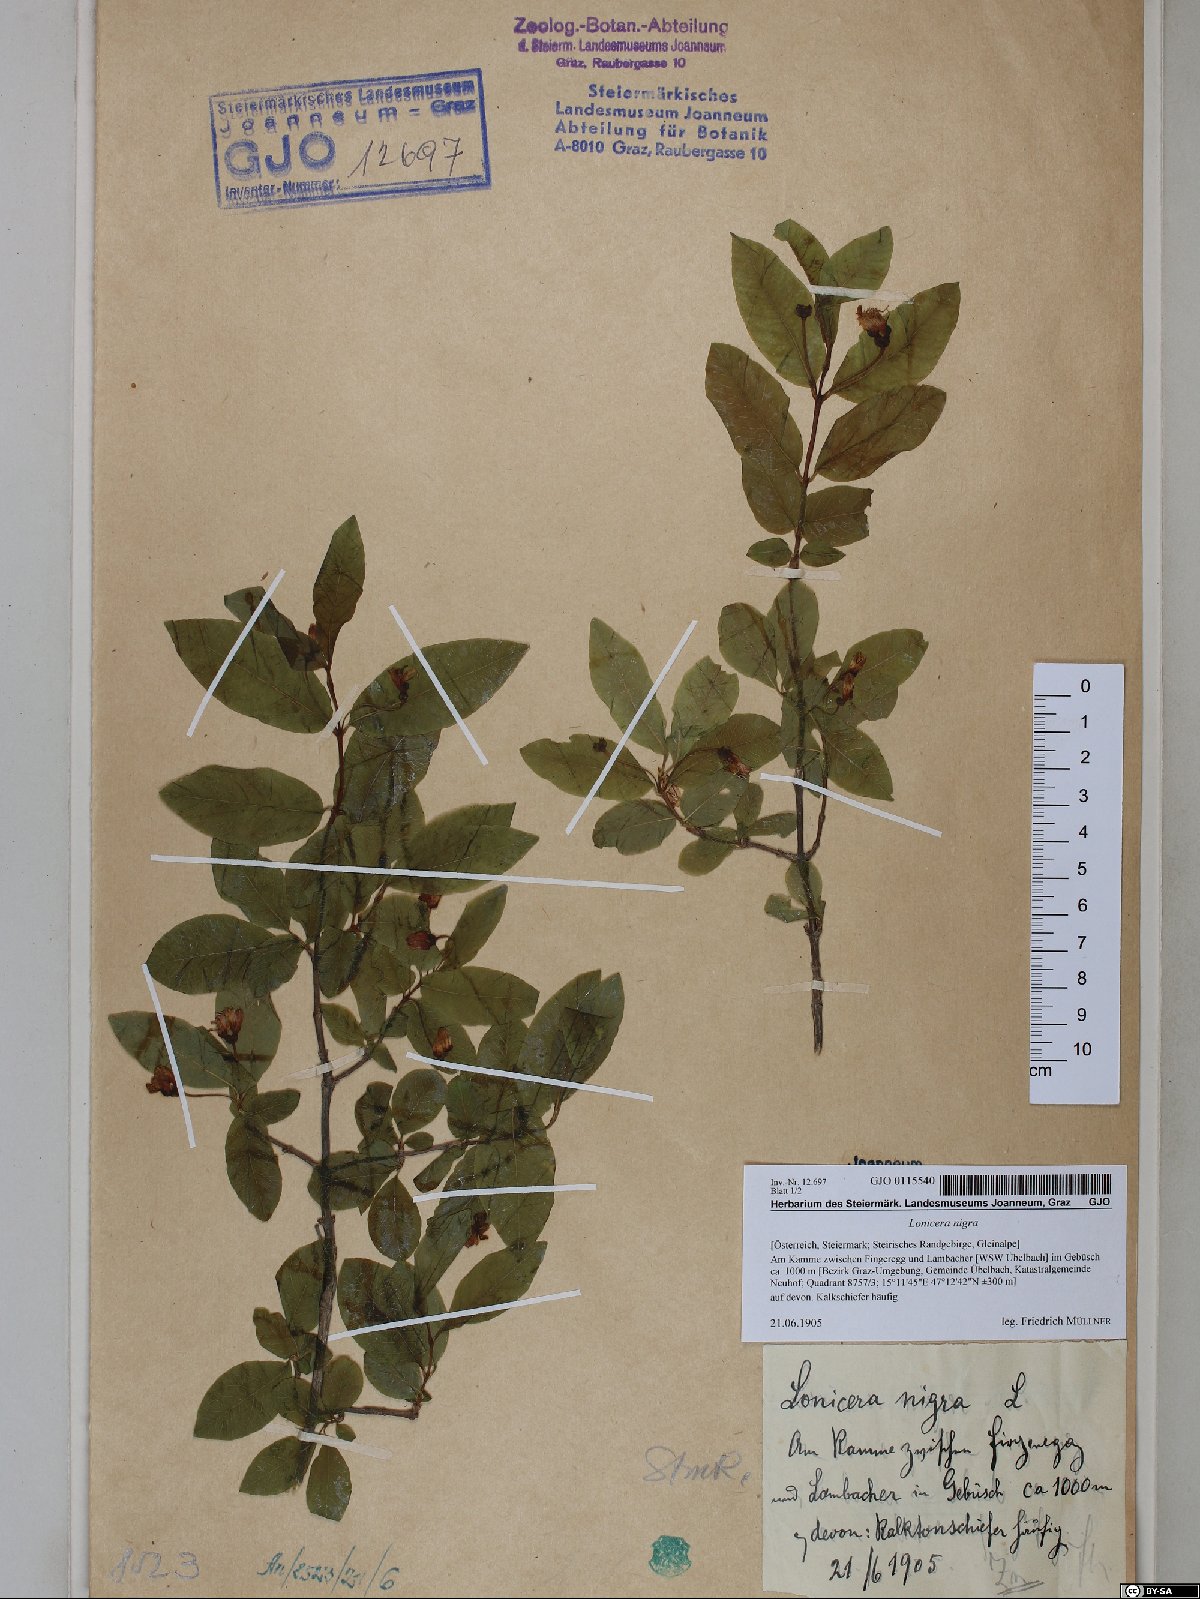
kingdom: Plantae
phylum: Tracheophyta
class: Magnoliopsida
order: Dipsacales
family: Caprifoliaceae
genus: Lonicera
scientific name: Lonicera nigra
